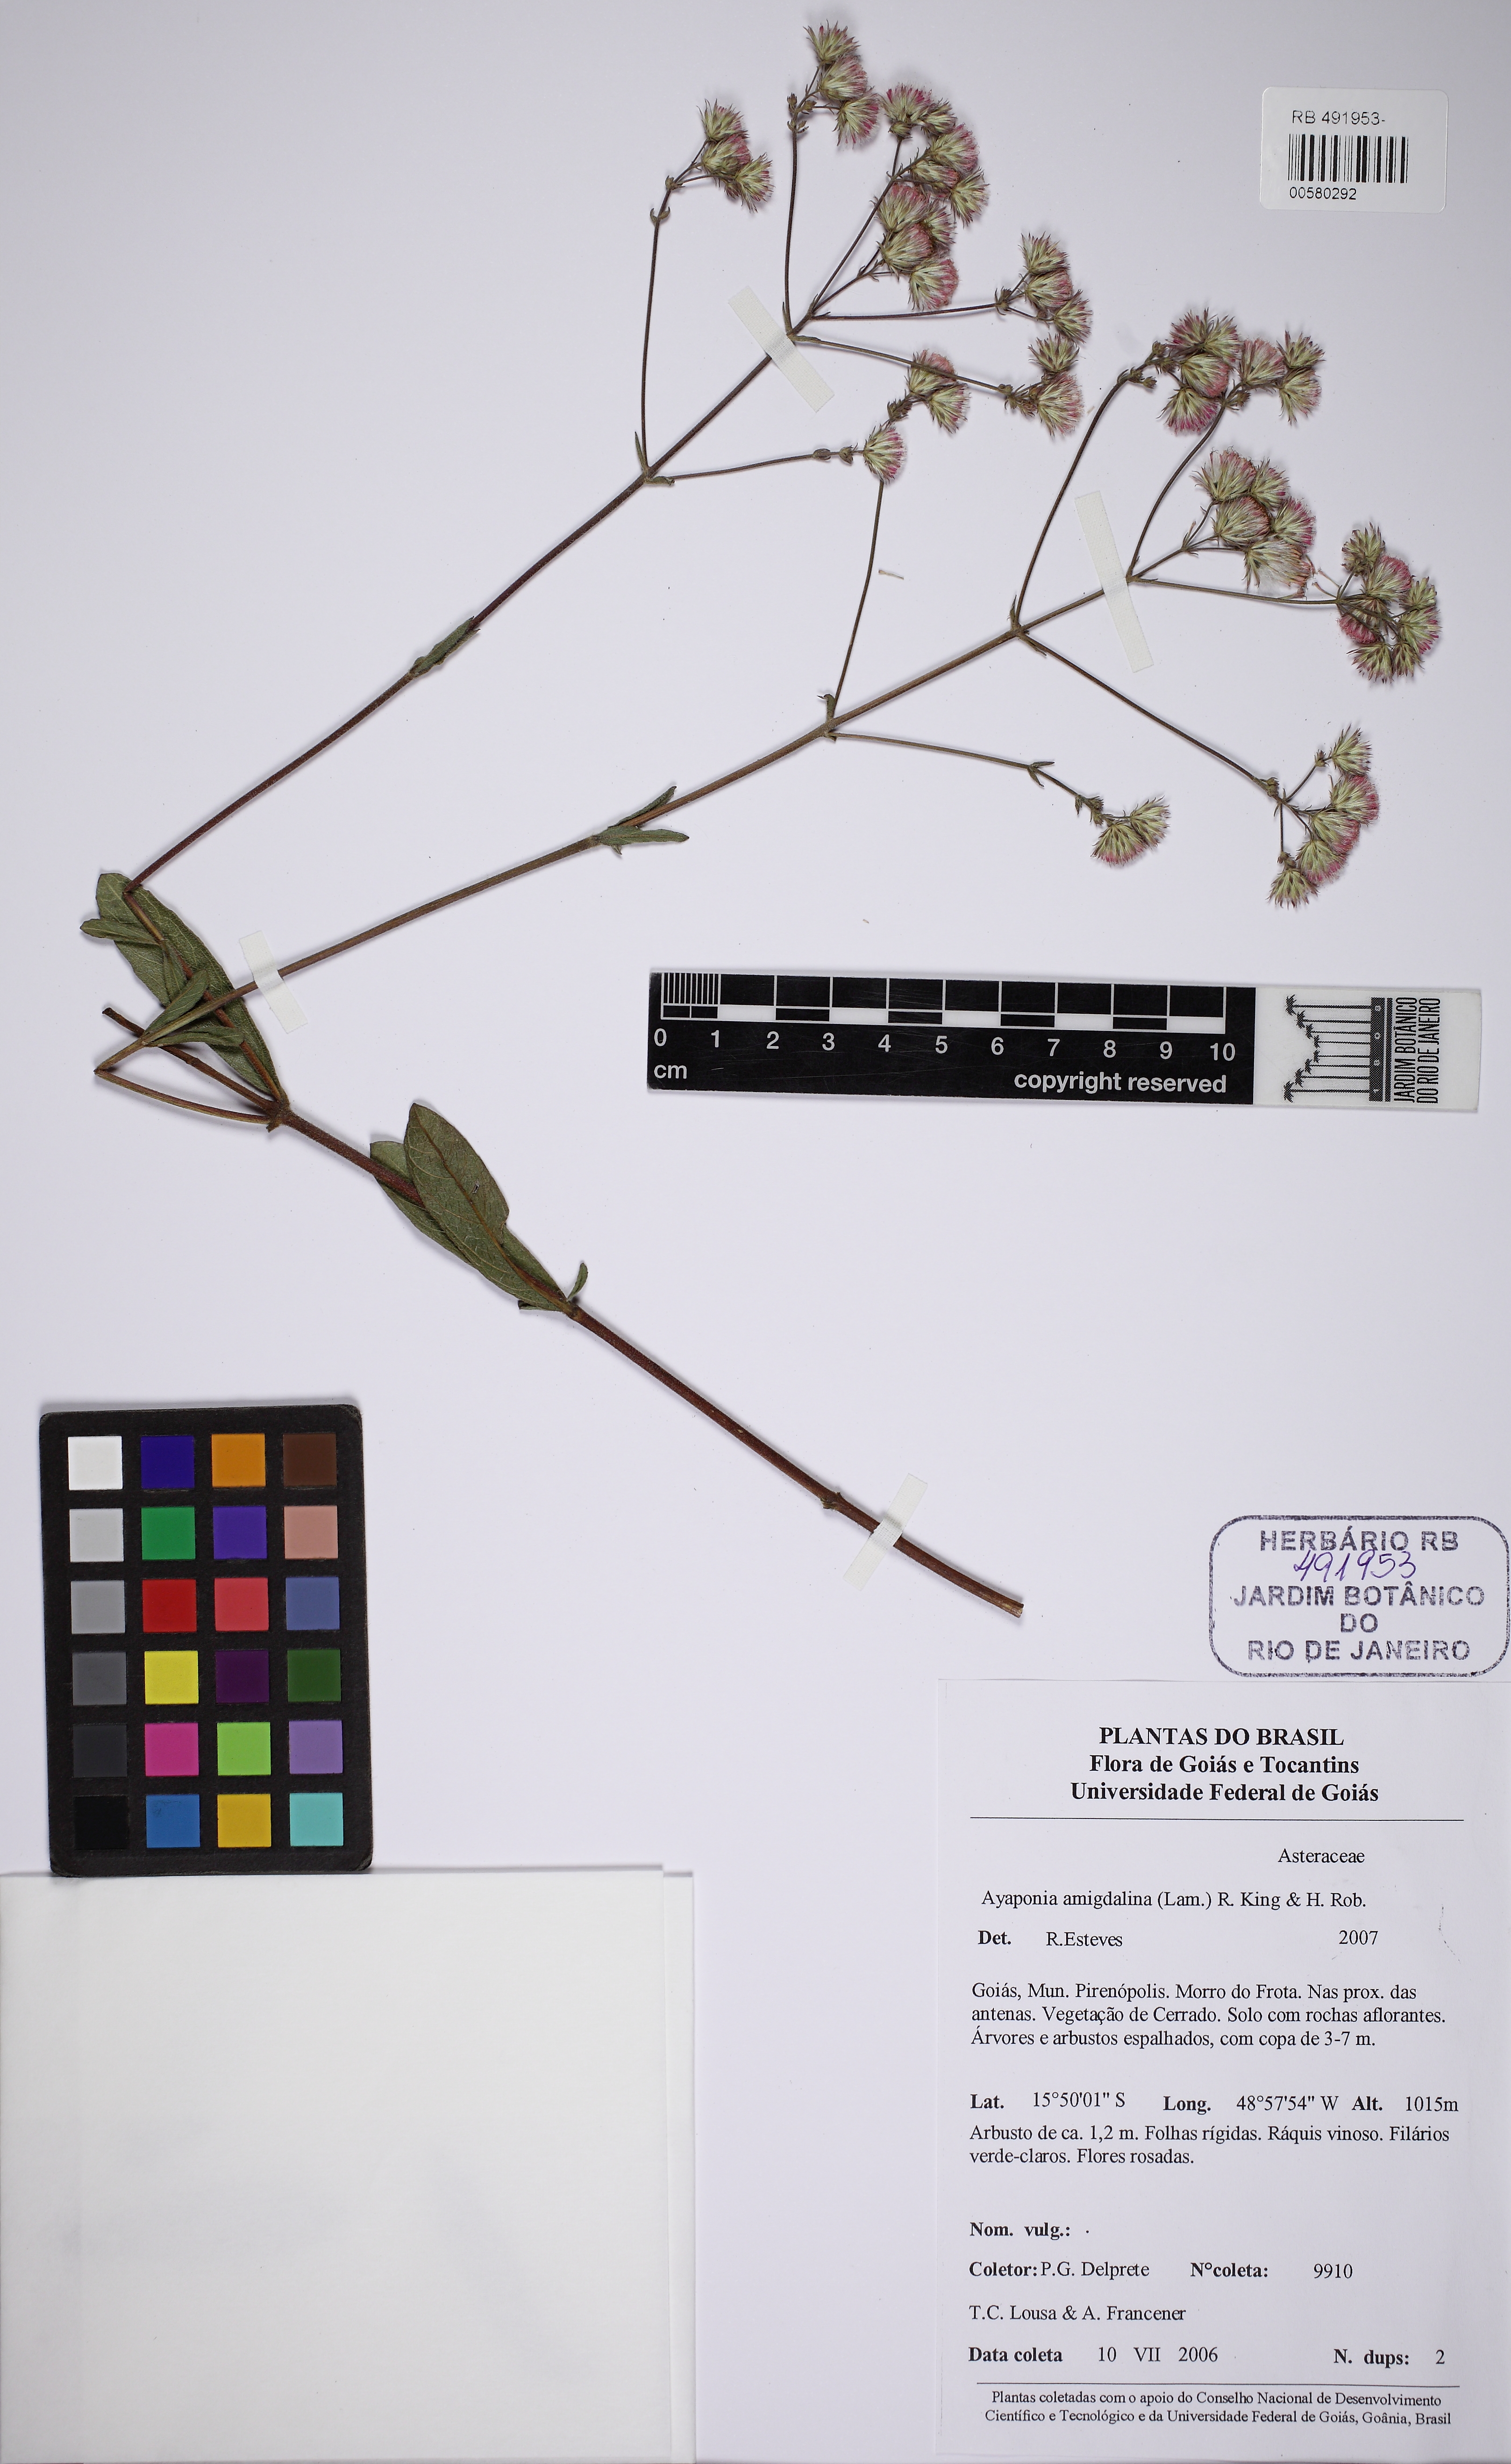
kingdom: Plantae
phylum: Tracheophyta
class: Magnoliopsida
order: Asterales
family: Asteraceae
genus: Ayapana
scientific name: Ayapana amygdalina
